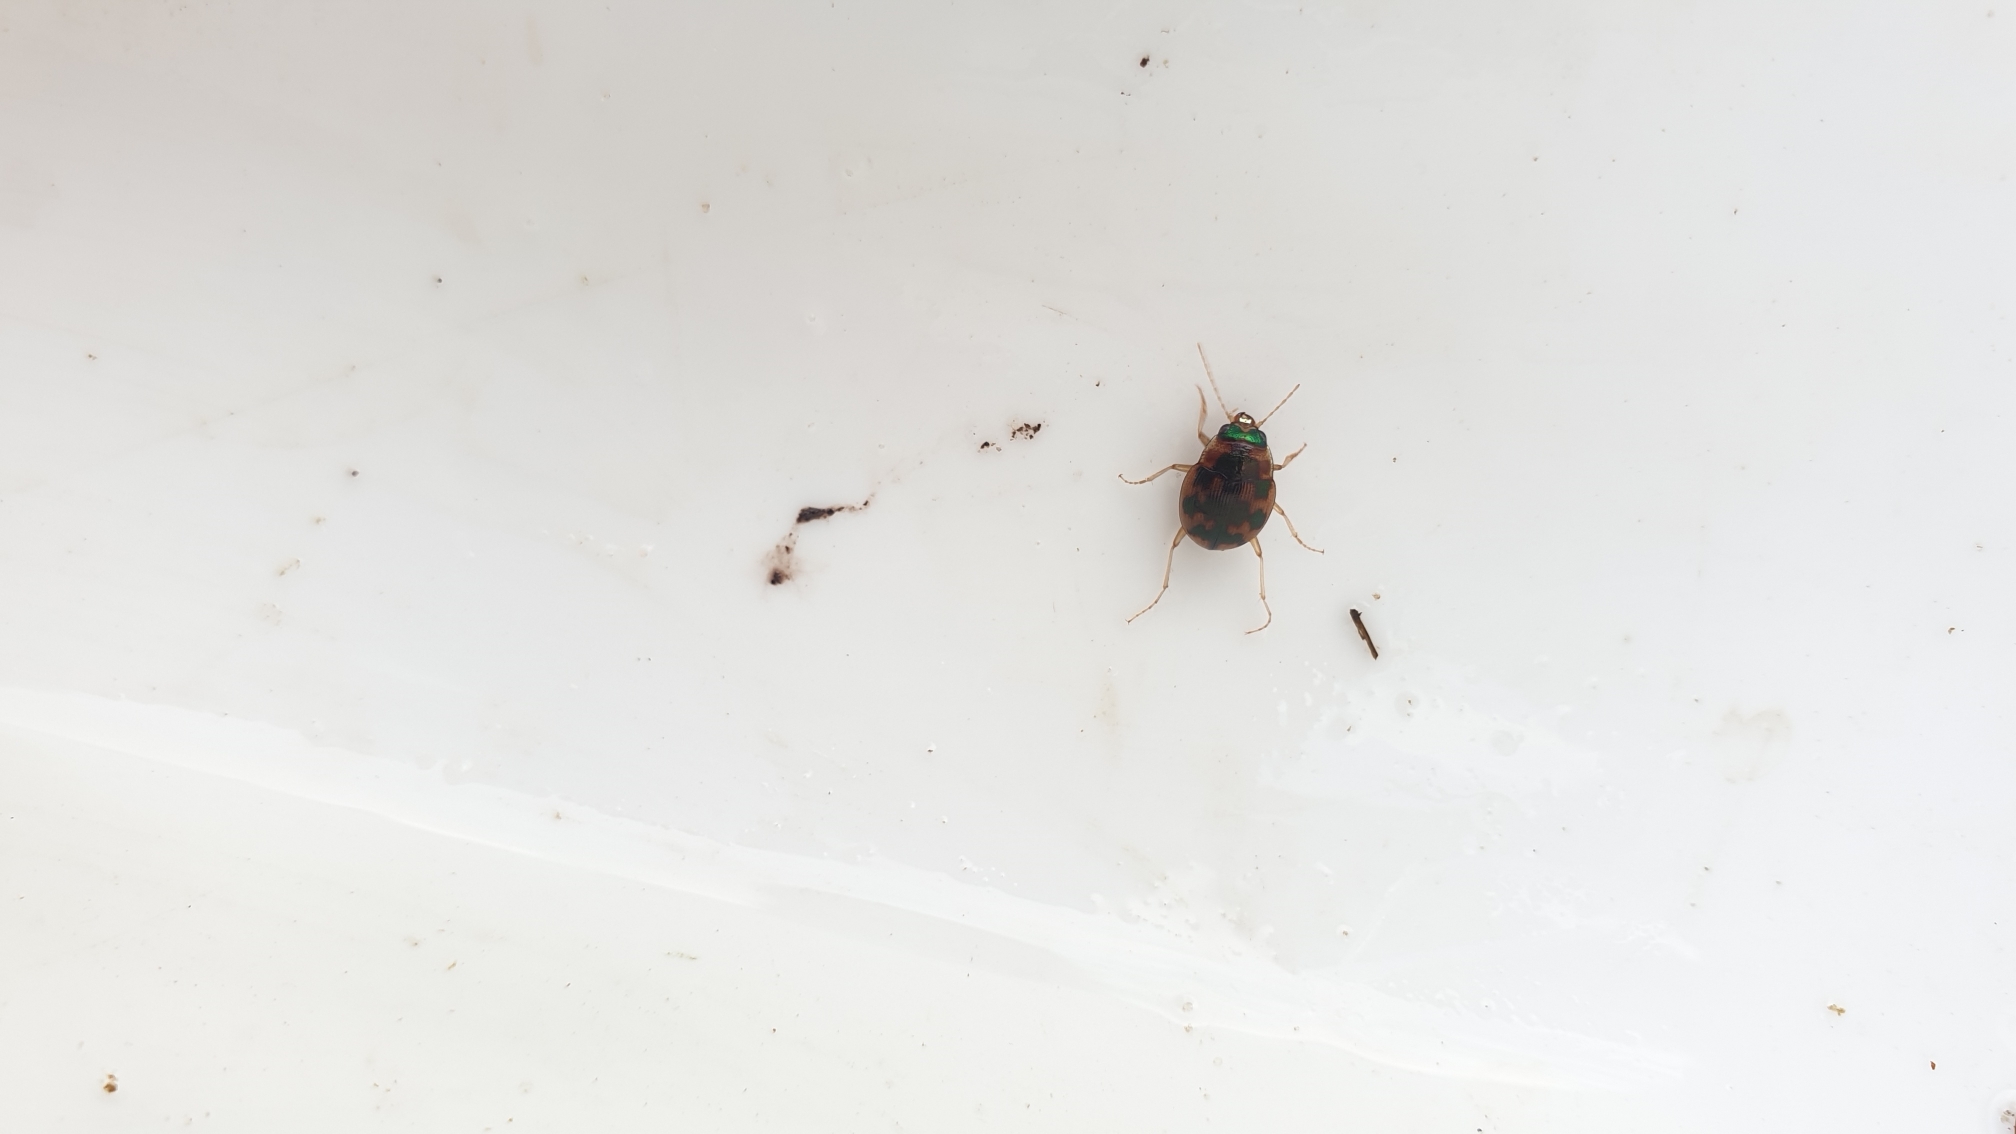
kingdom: Animalia
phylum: Arthropoda
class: Insecta
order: Coleoptera
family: Carabidae
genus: Omophron
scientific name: Omophron limbatum
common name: Kugleløber
